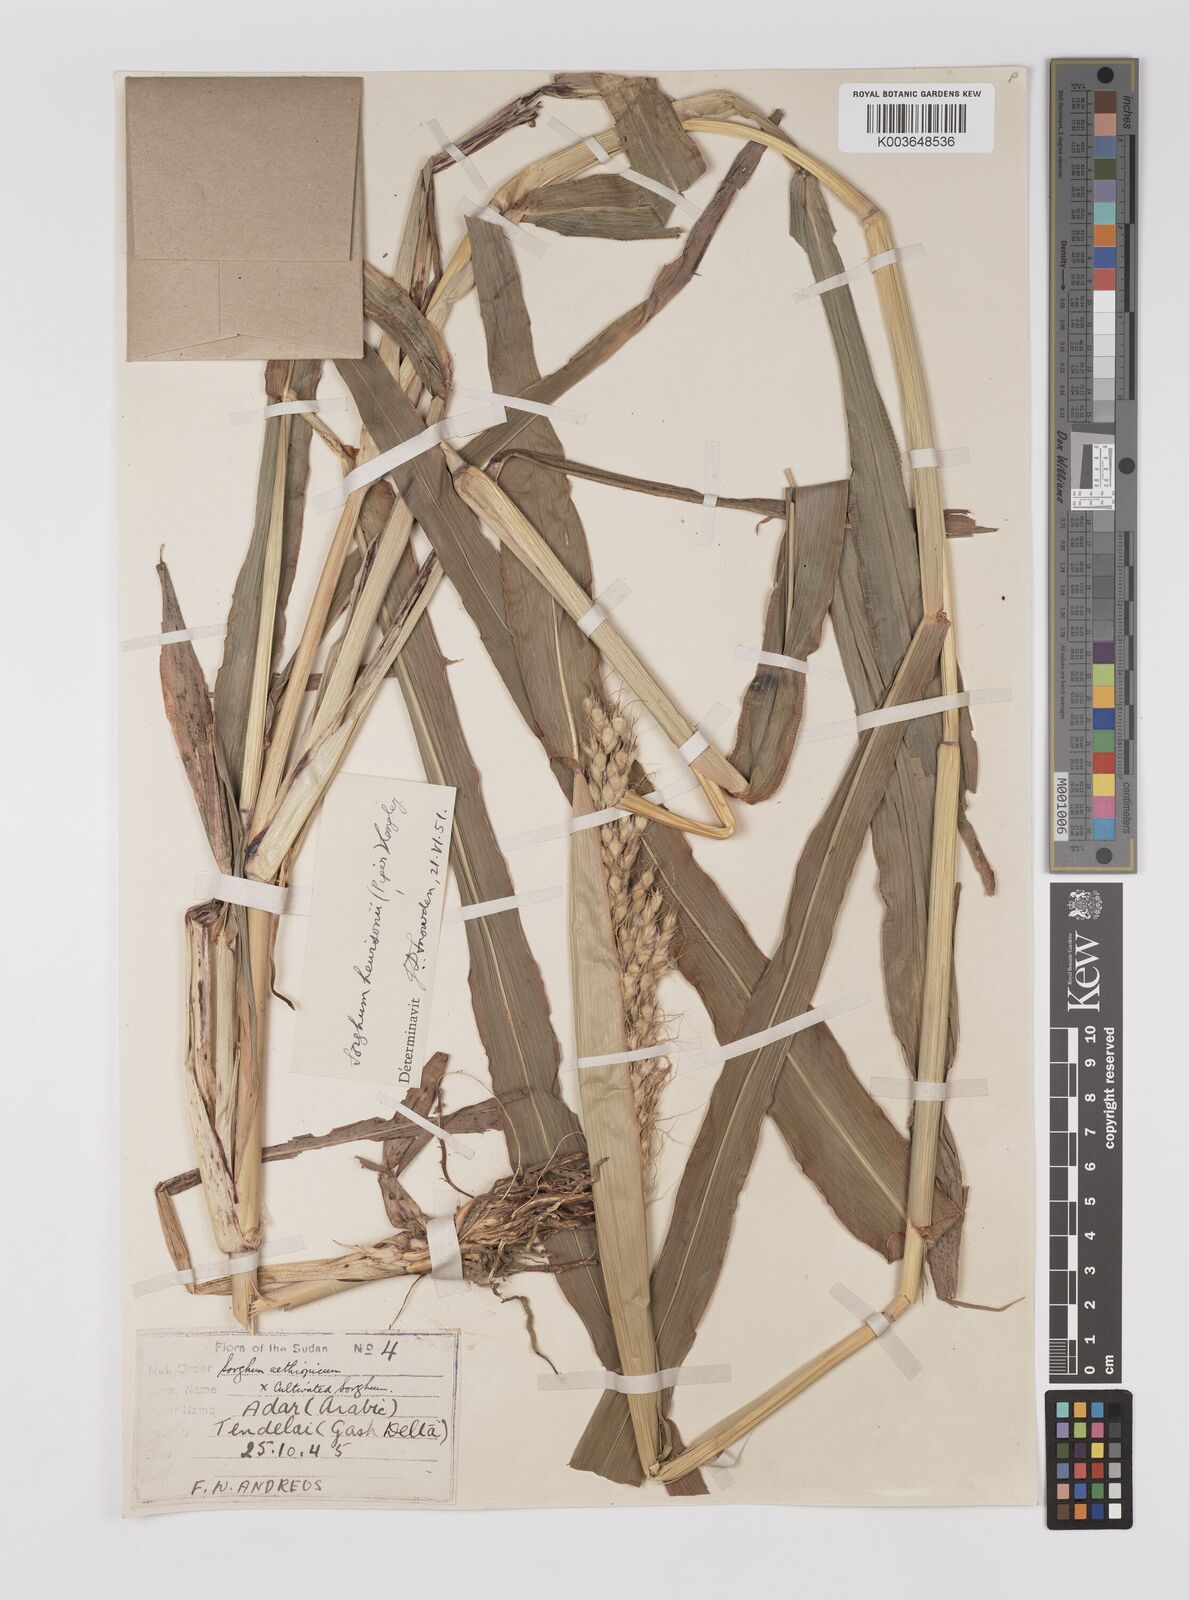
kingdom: Plantae
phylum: Tracheophyta
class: Liliopsida
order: Poales
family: Poaceae
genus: Sorghum
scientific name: Sorghum drummondii
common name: Sudangrass
